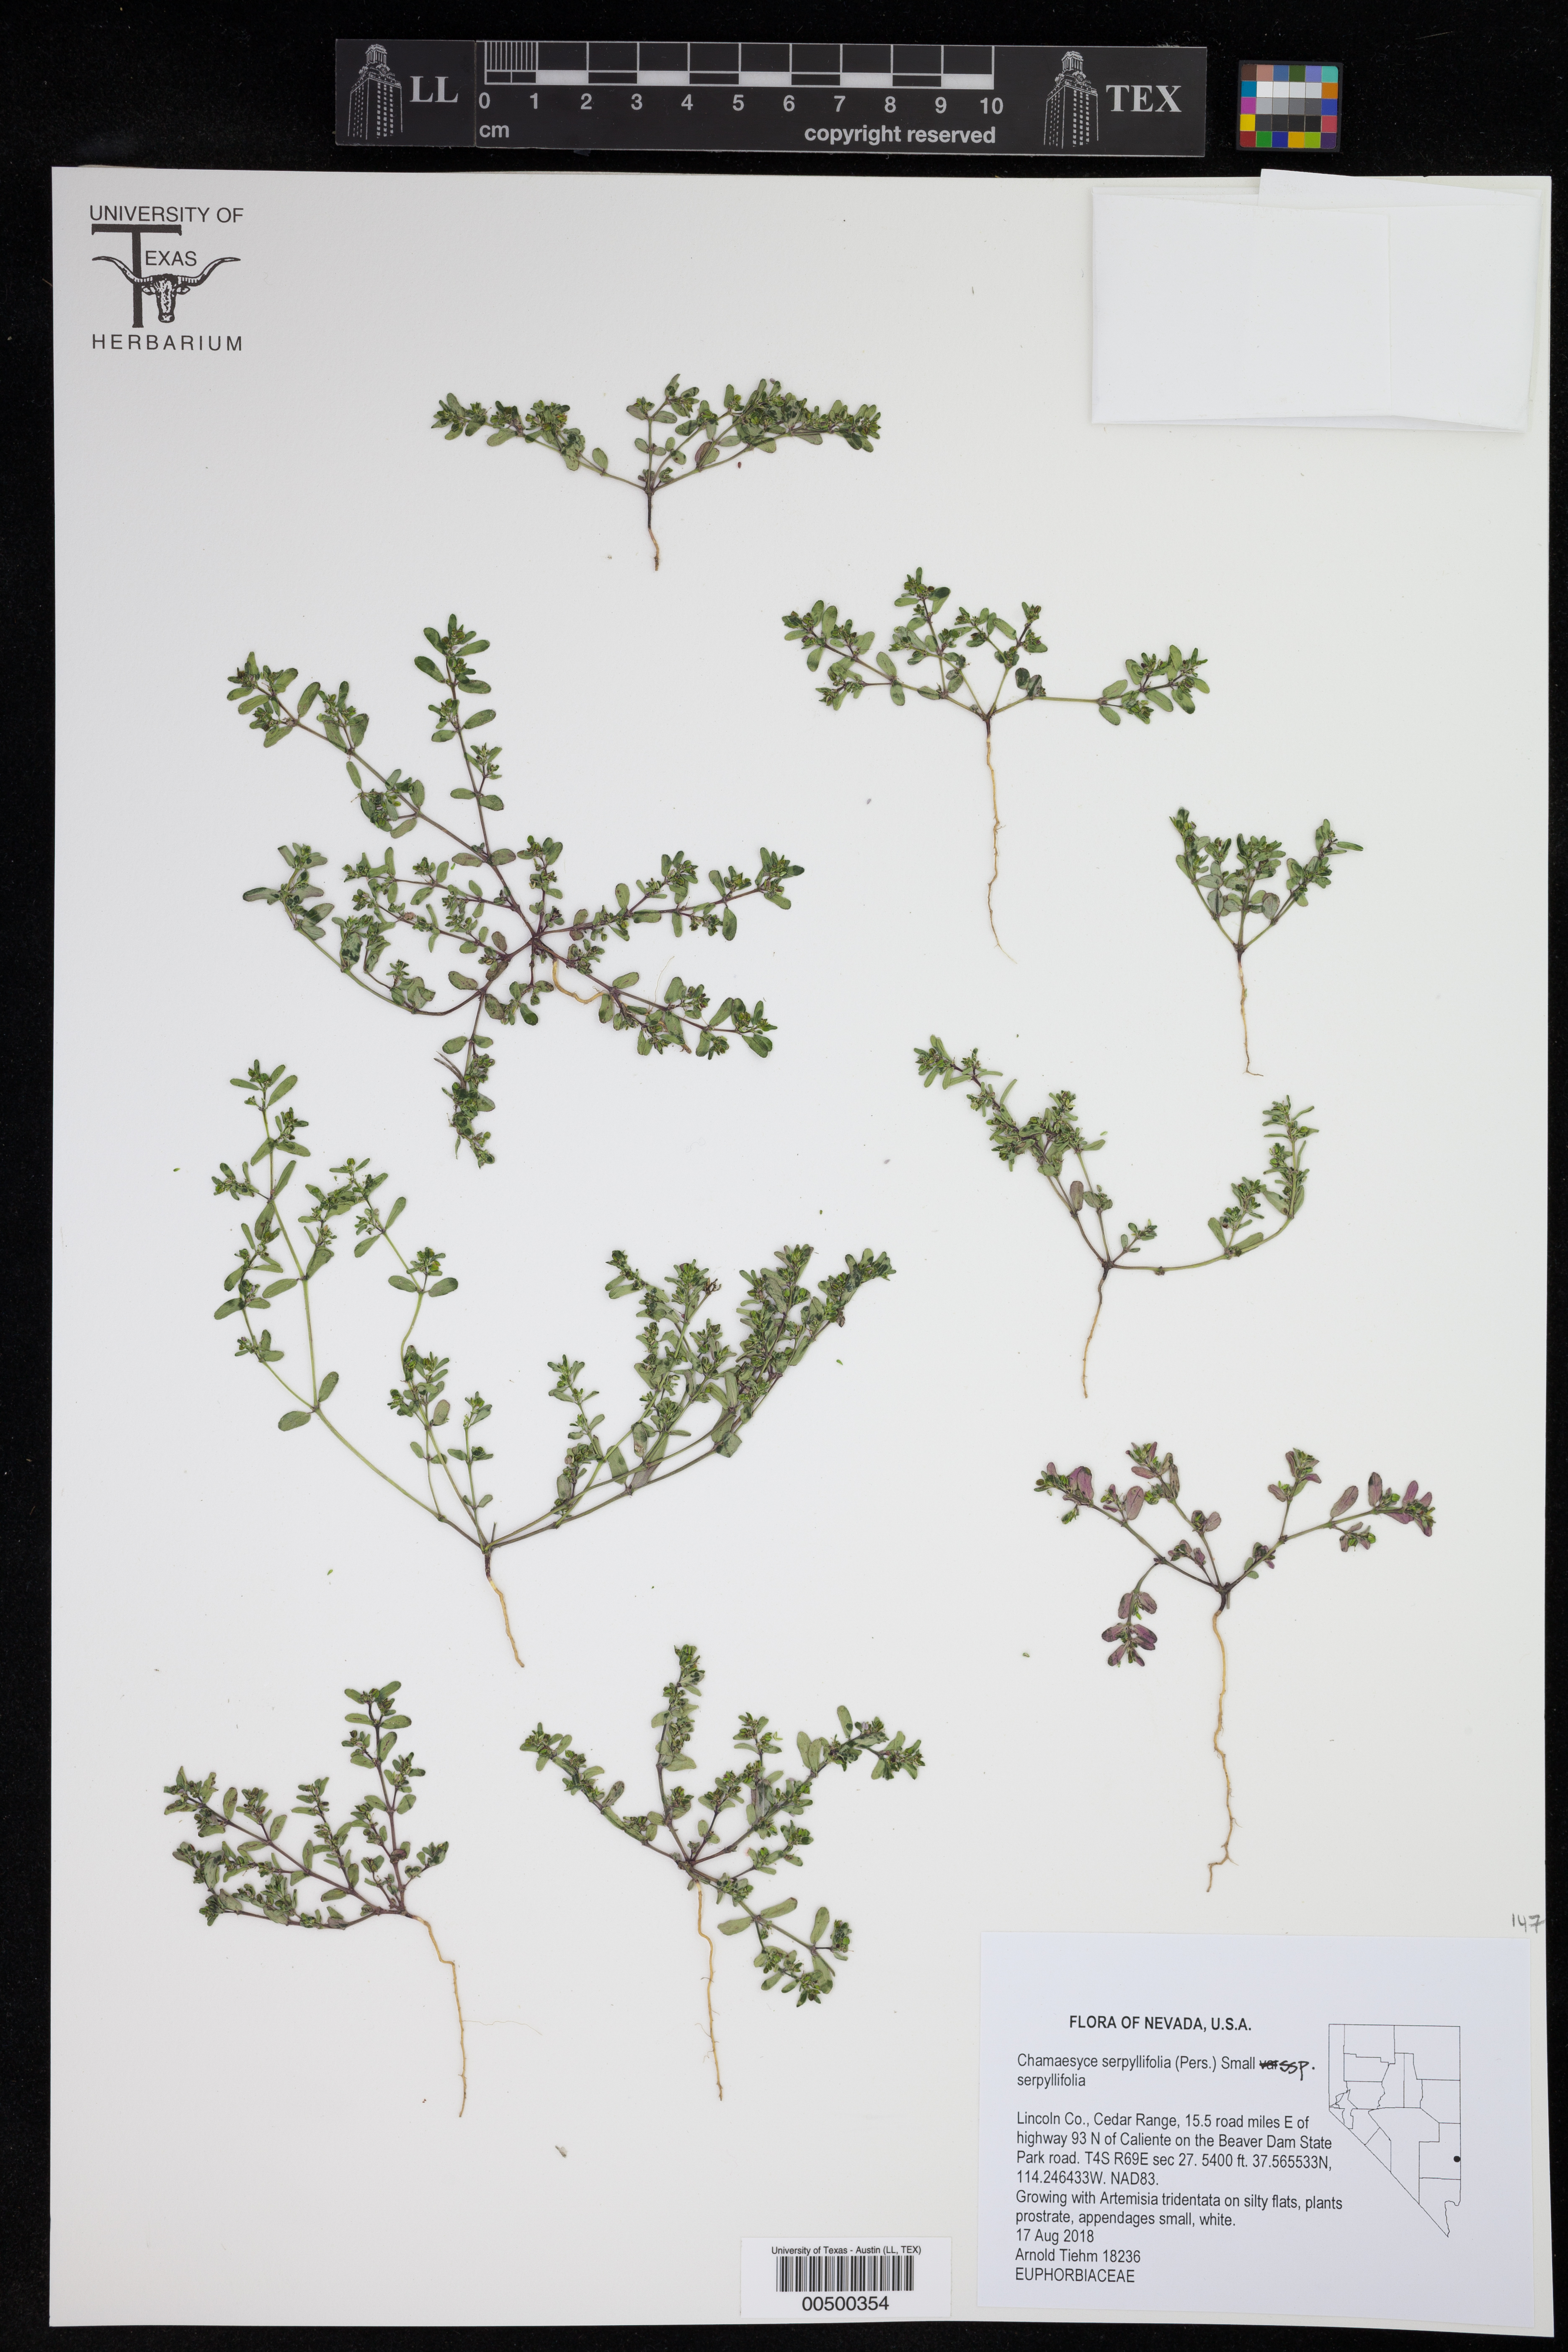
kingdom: Plantae
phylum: Tracheophyta
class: Magnoliopsida
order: Malpighiales
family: Euphorbiaceae
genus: Euphorbia
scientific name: Euphorbia serpillifolia
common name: Thyme-leaf spurge
